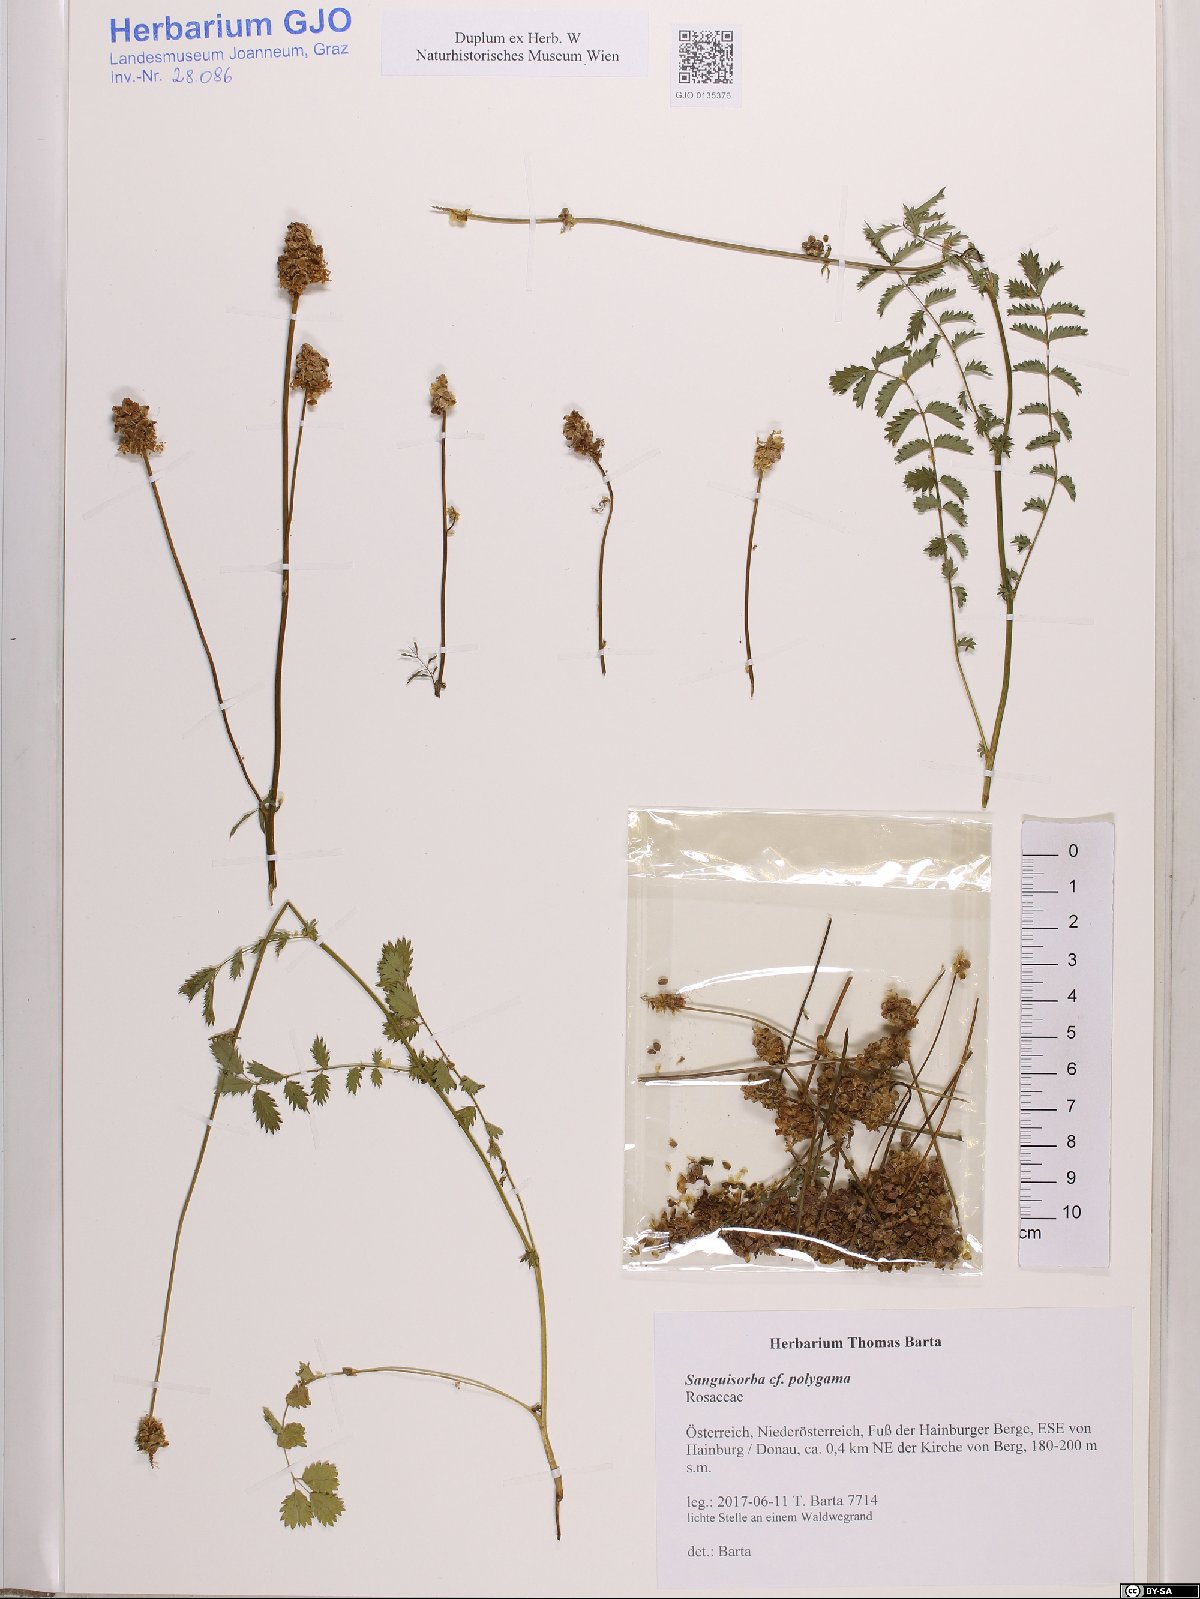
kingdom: Plantae
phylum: Tracheophyta
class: Magnoliopsida
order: Rosales
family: Rosaceae
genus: Poterium
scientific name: Poterium sanguisorba
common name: Salad burnet
